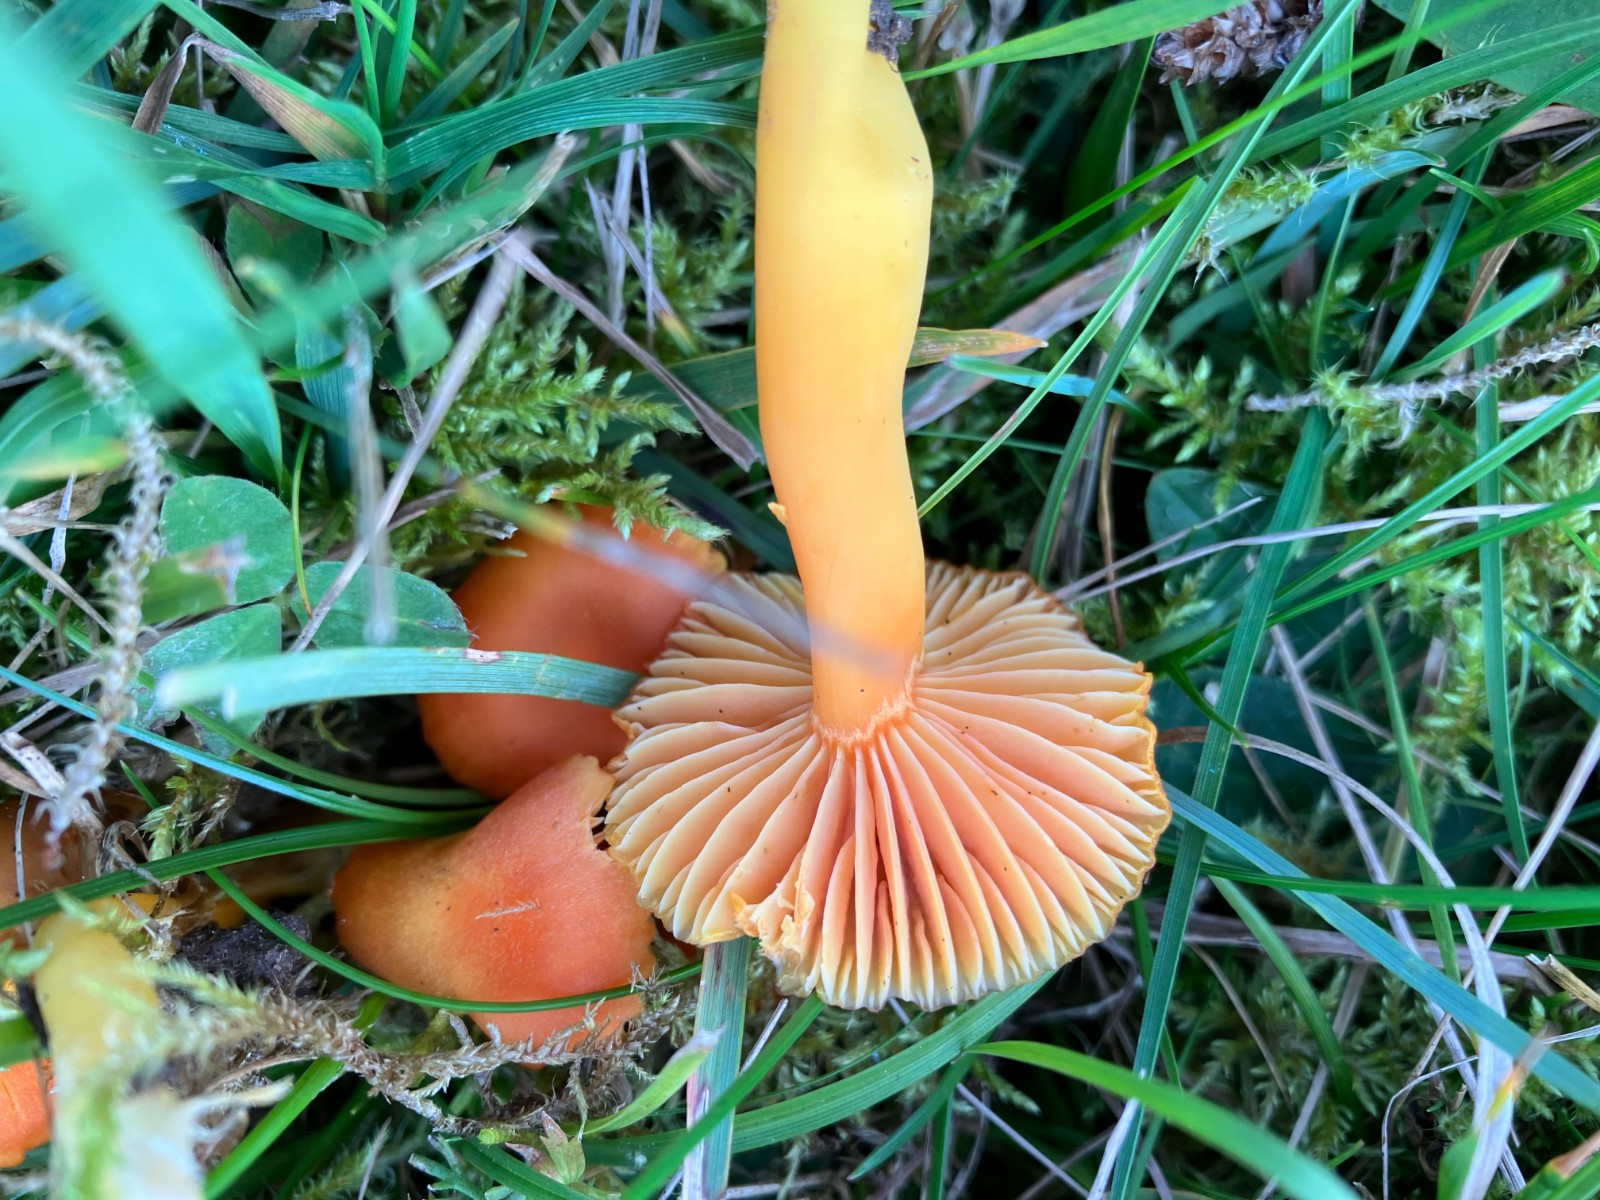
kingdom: Fungi
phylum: Basidiomycota
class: Agaricomycetes
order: Agaricales
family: Hygrophoraceae
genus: Hygrocybe
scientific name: Hygrocybe reidii
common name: honning-vokshat
